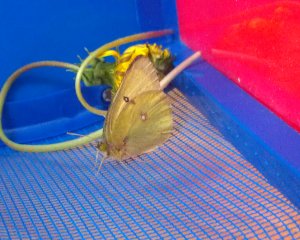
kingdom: Animalia
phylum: Arthropoda
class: Insecta
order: Lepidoptera
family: Pieridae
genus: Colias
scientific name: Colias philodice
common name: Clouded Sulphur
